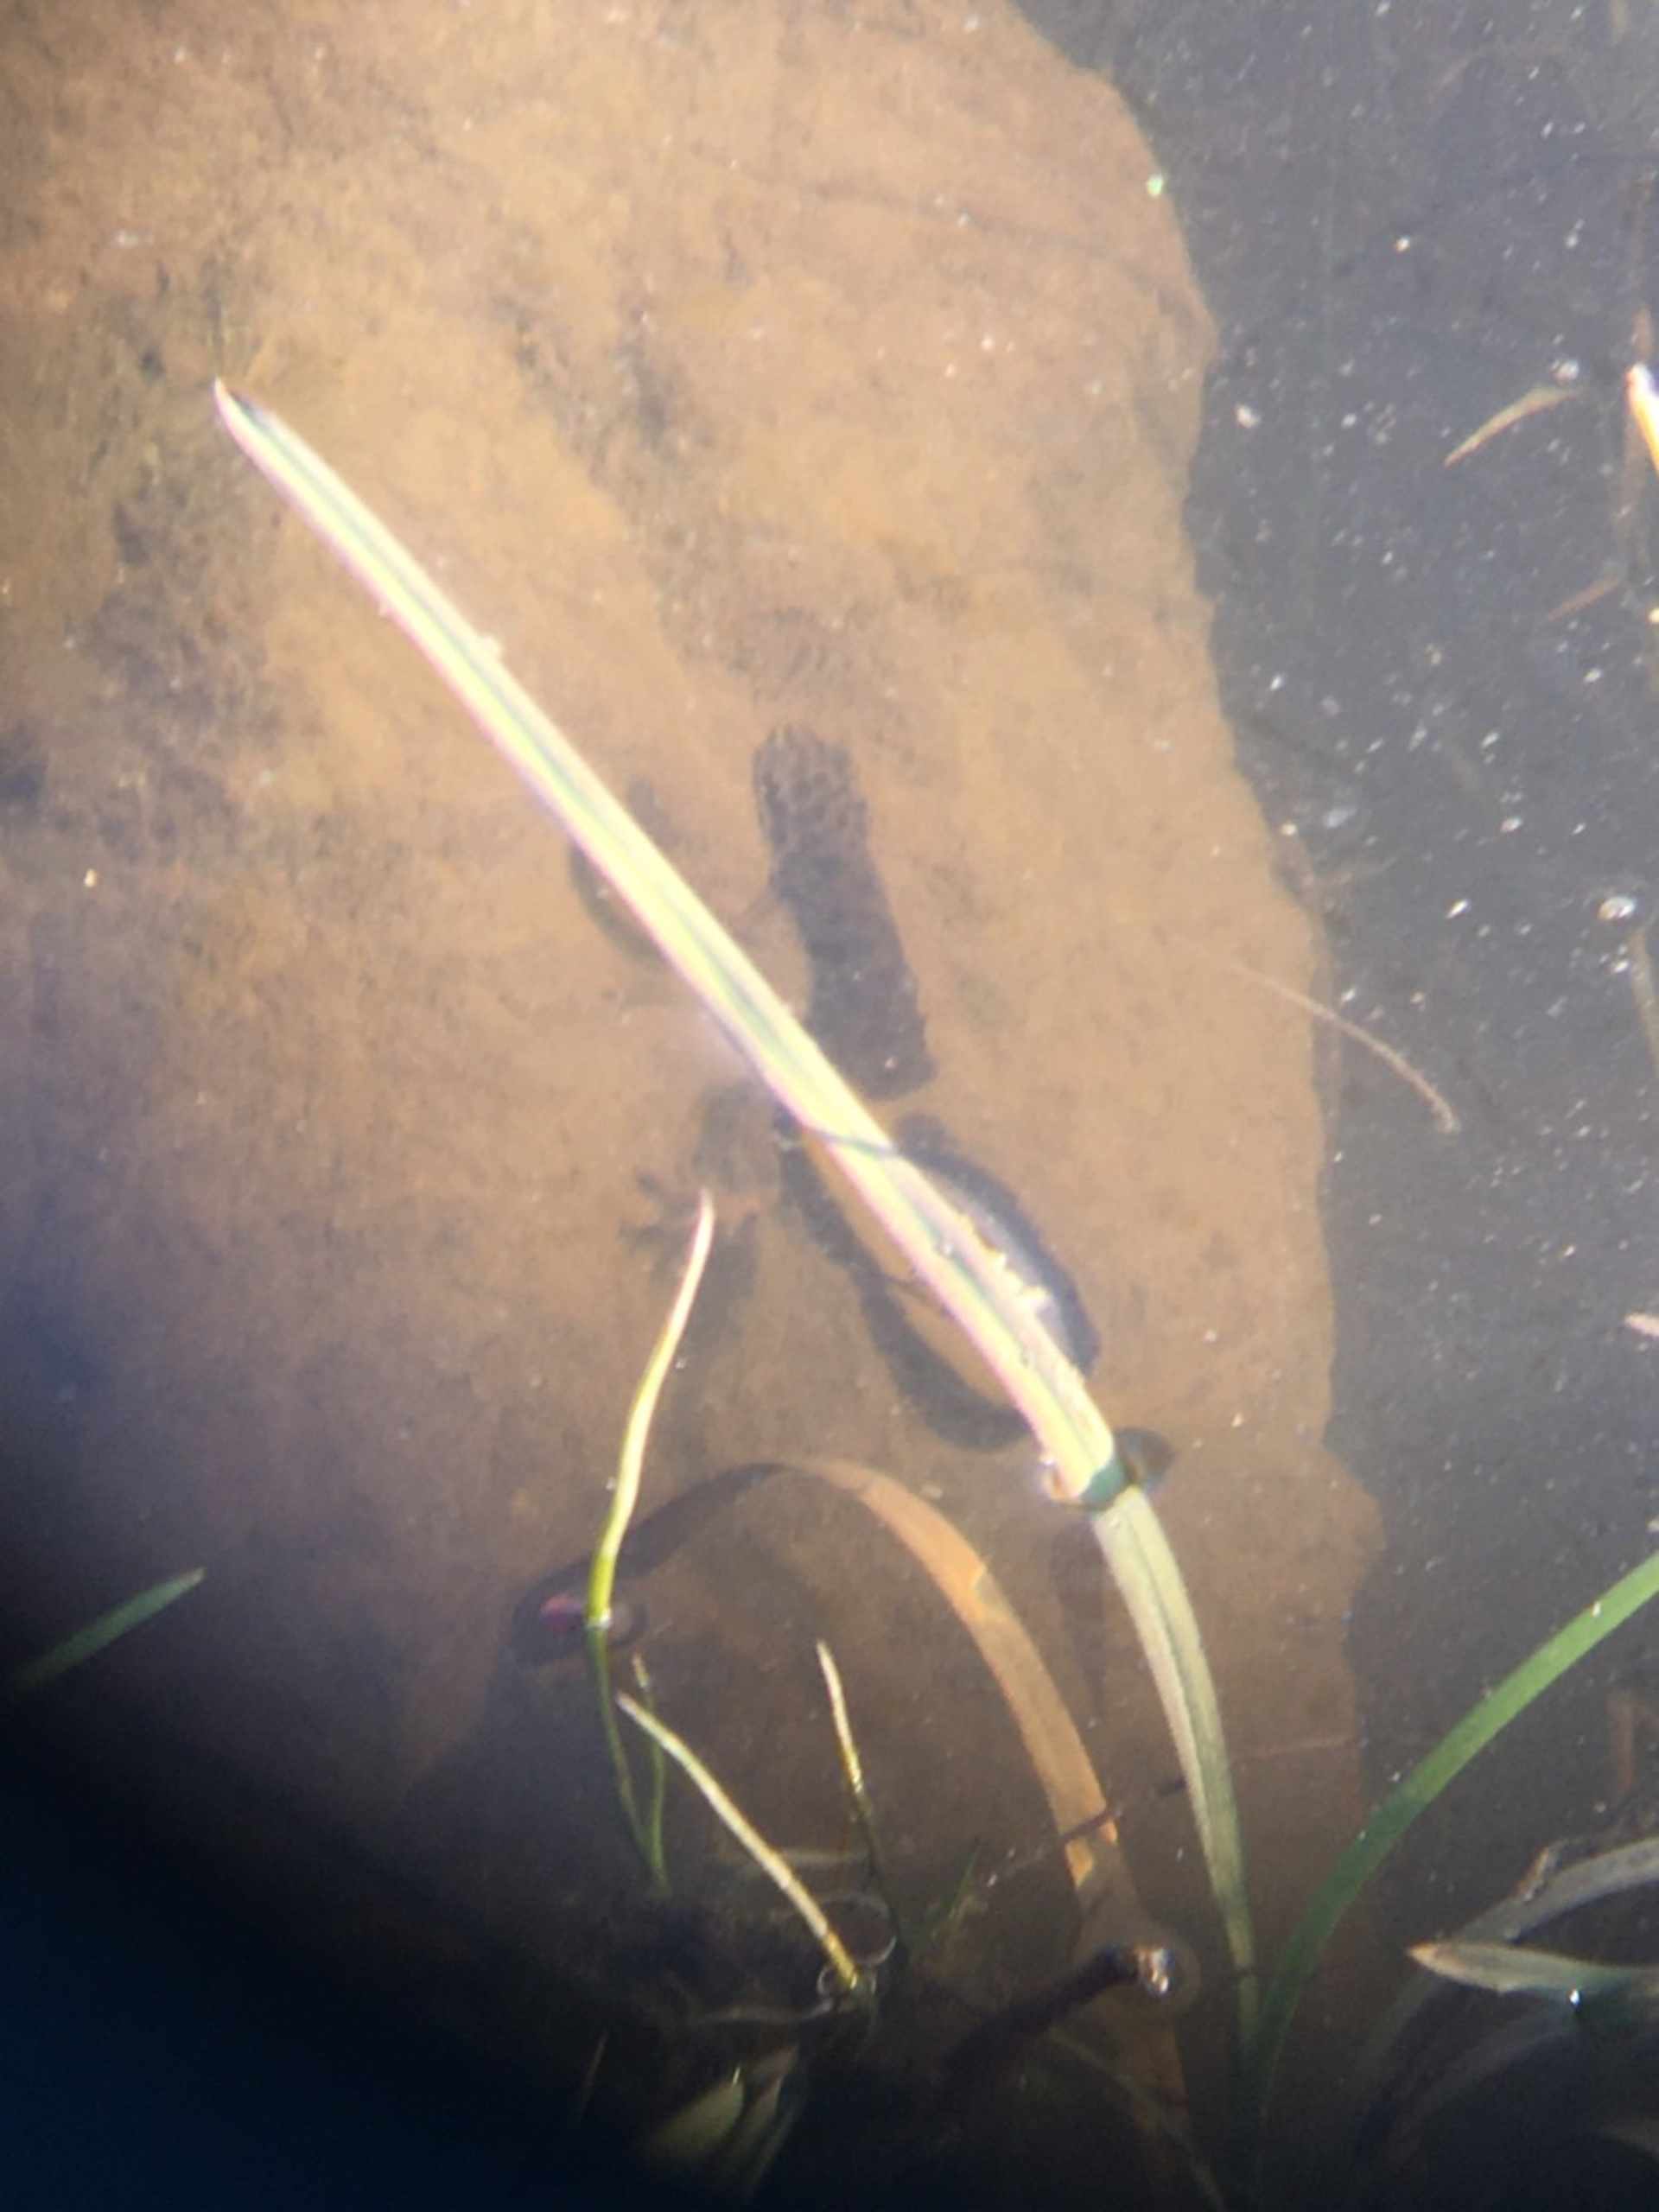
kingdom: Animalia
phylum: Chordata
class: Amphibia
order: Caudata
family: Salamandridae
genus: Lissotriton
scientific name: Lissotriton vulgaris
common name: Lille vandsalamander
